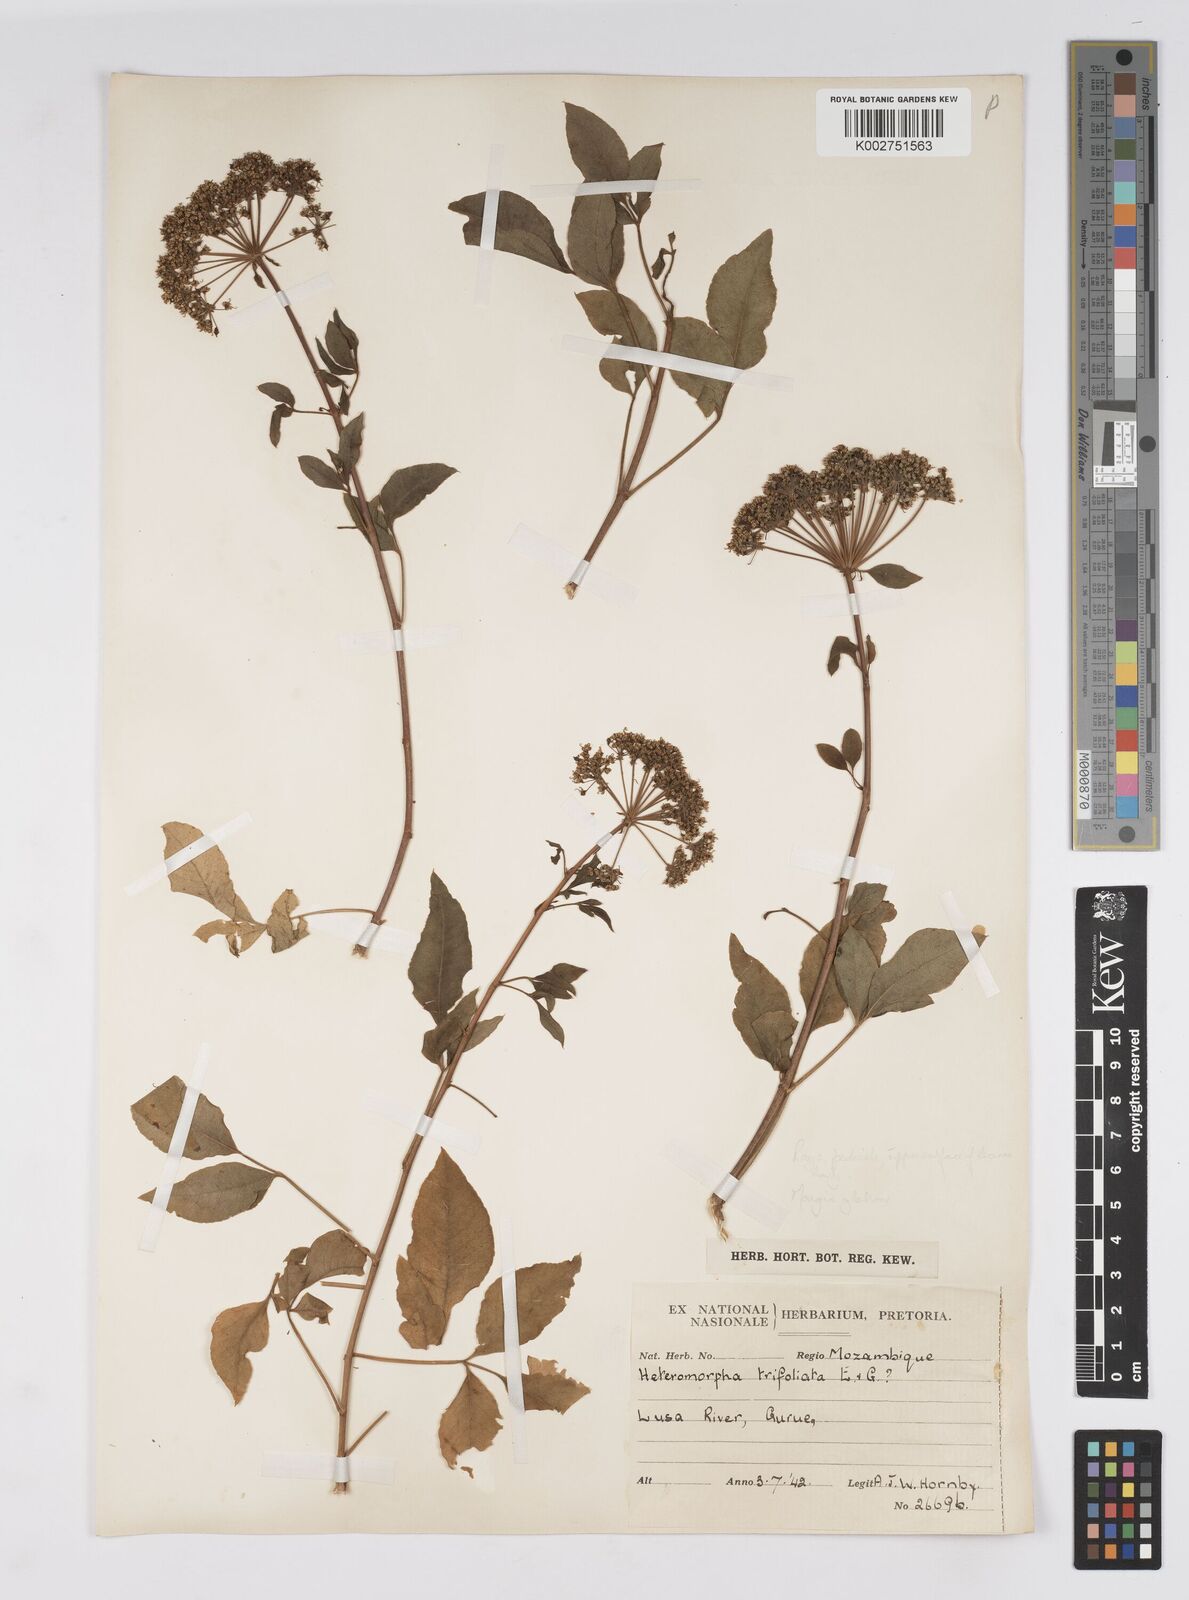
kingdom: Plantae
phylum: Tracheophyta
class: Magnoliopsida
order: Apiales
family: Apiaceae
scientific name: Apiaceae
